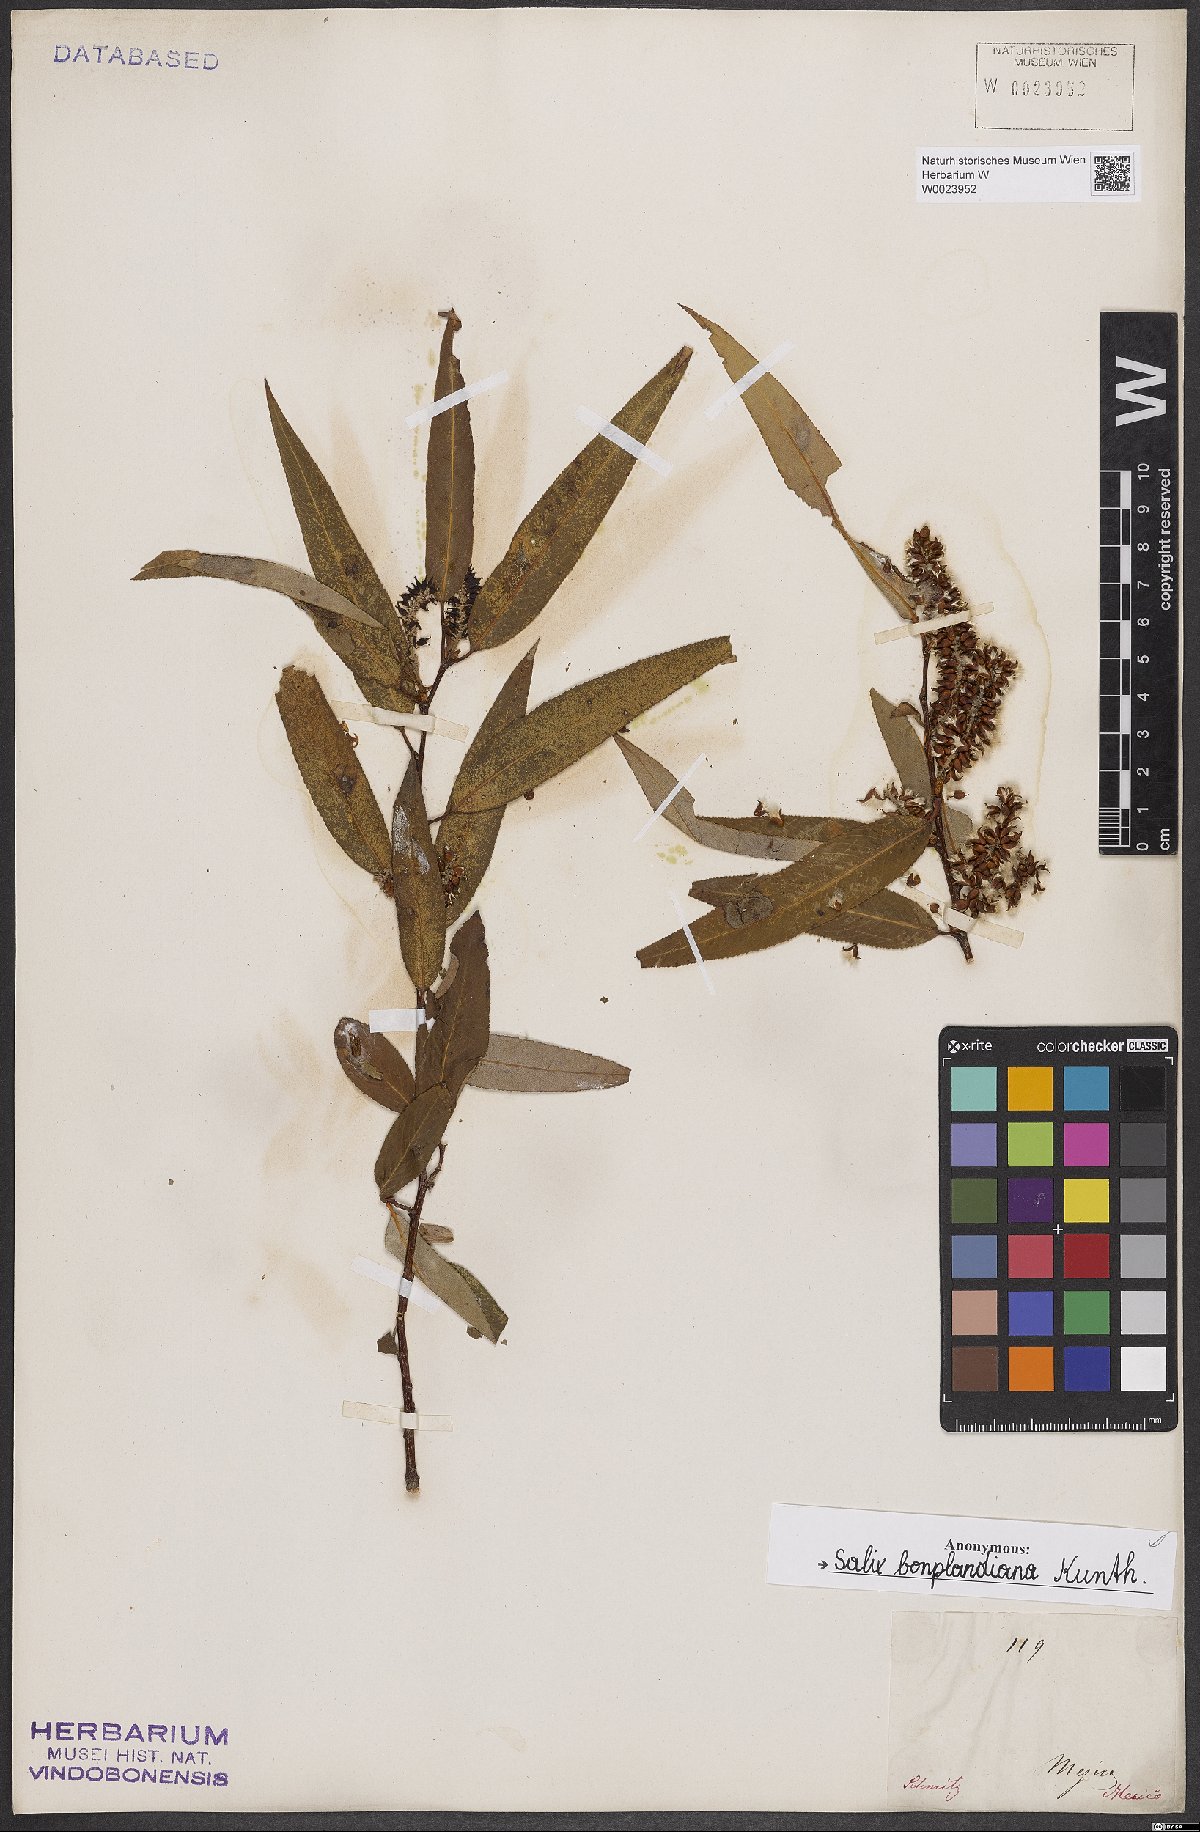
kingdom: Plantae
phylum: Tracheophyta
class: Magnoliopsida
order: Malpighiales
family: Salicaceae
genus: Salix
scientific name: Salix bonplandiana
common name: Bonpland’s willow
